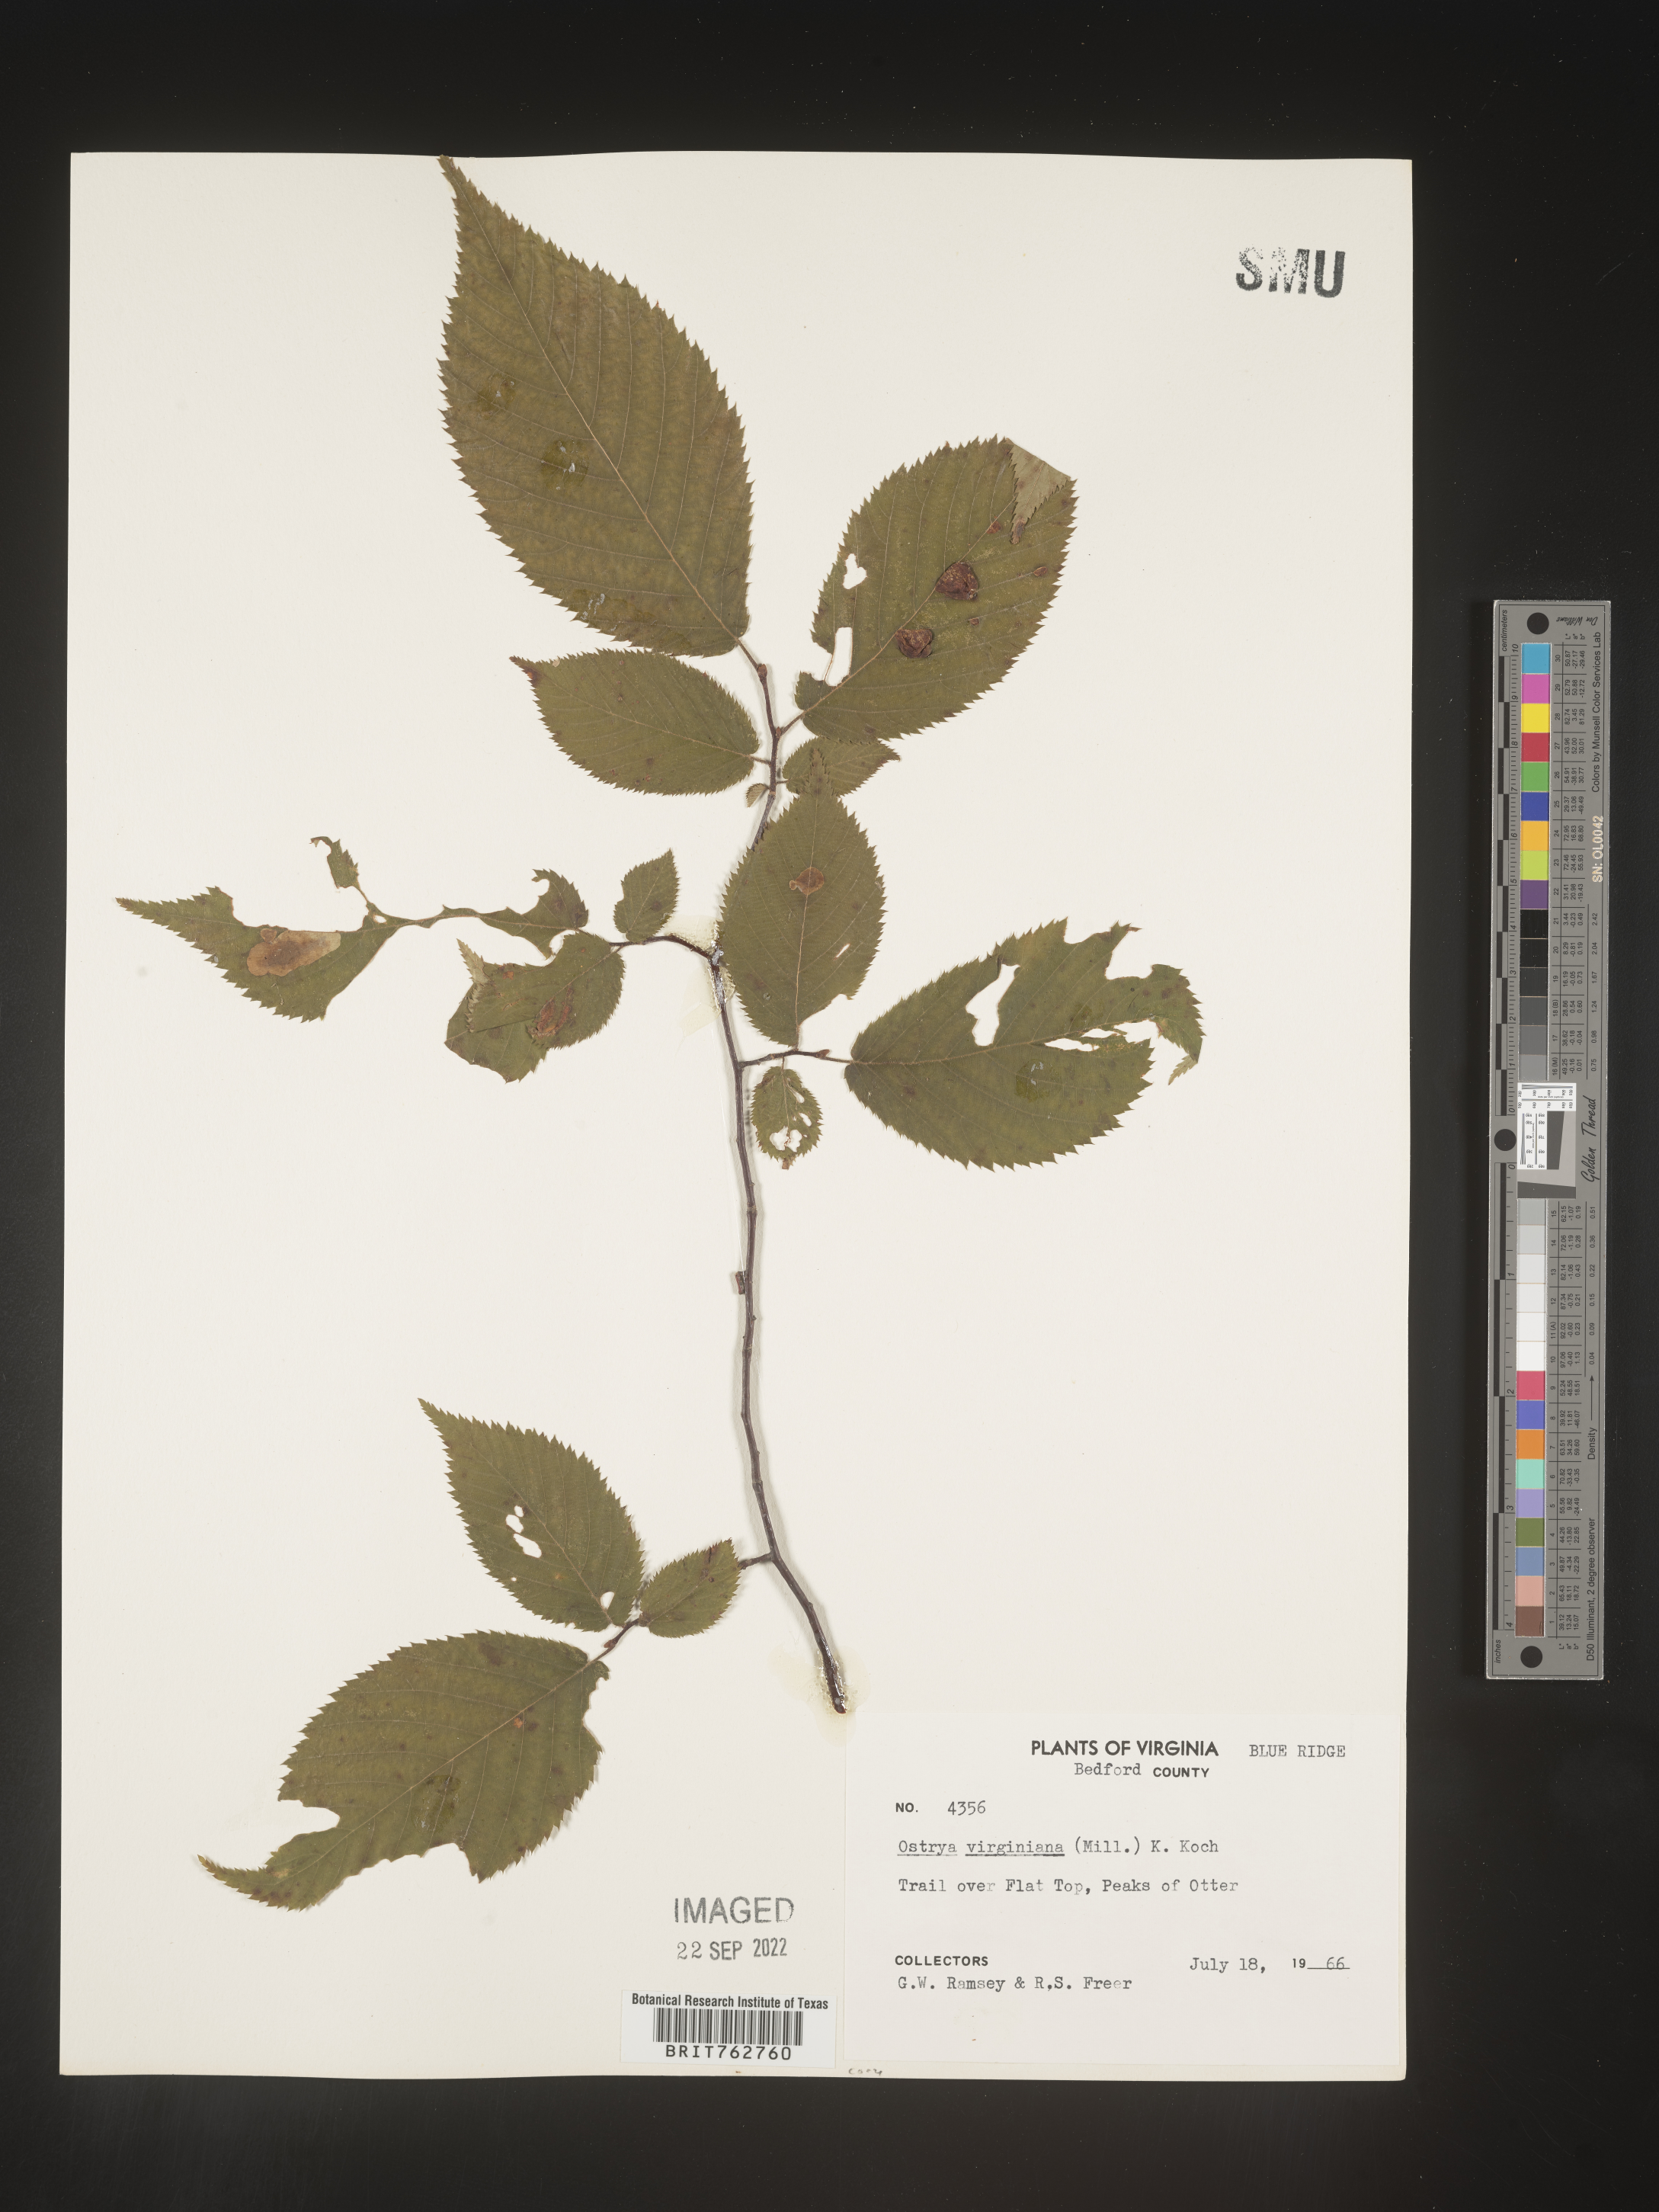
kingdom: Plantae
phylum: Tracheophyta
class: Magnoliopsida
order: Fagales
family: Betulaceae
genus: Ostrya
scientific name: Ostrya virginiana
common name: Ironwood
